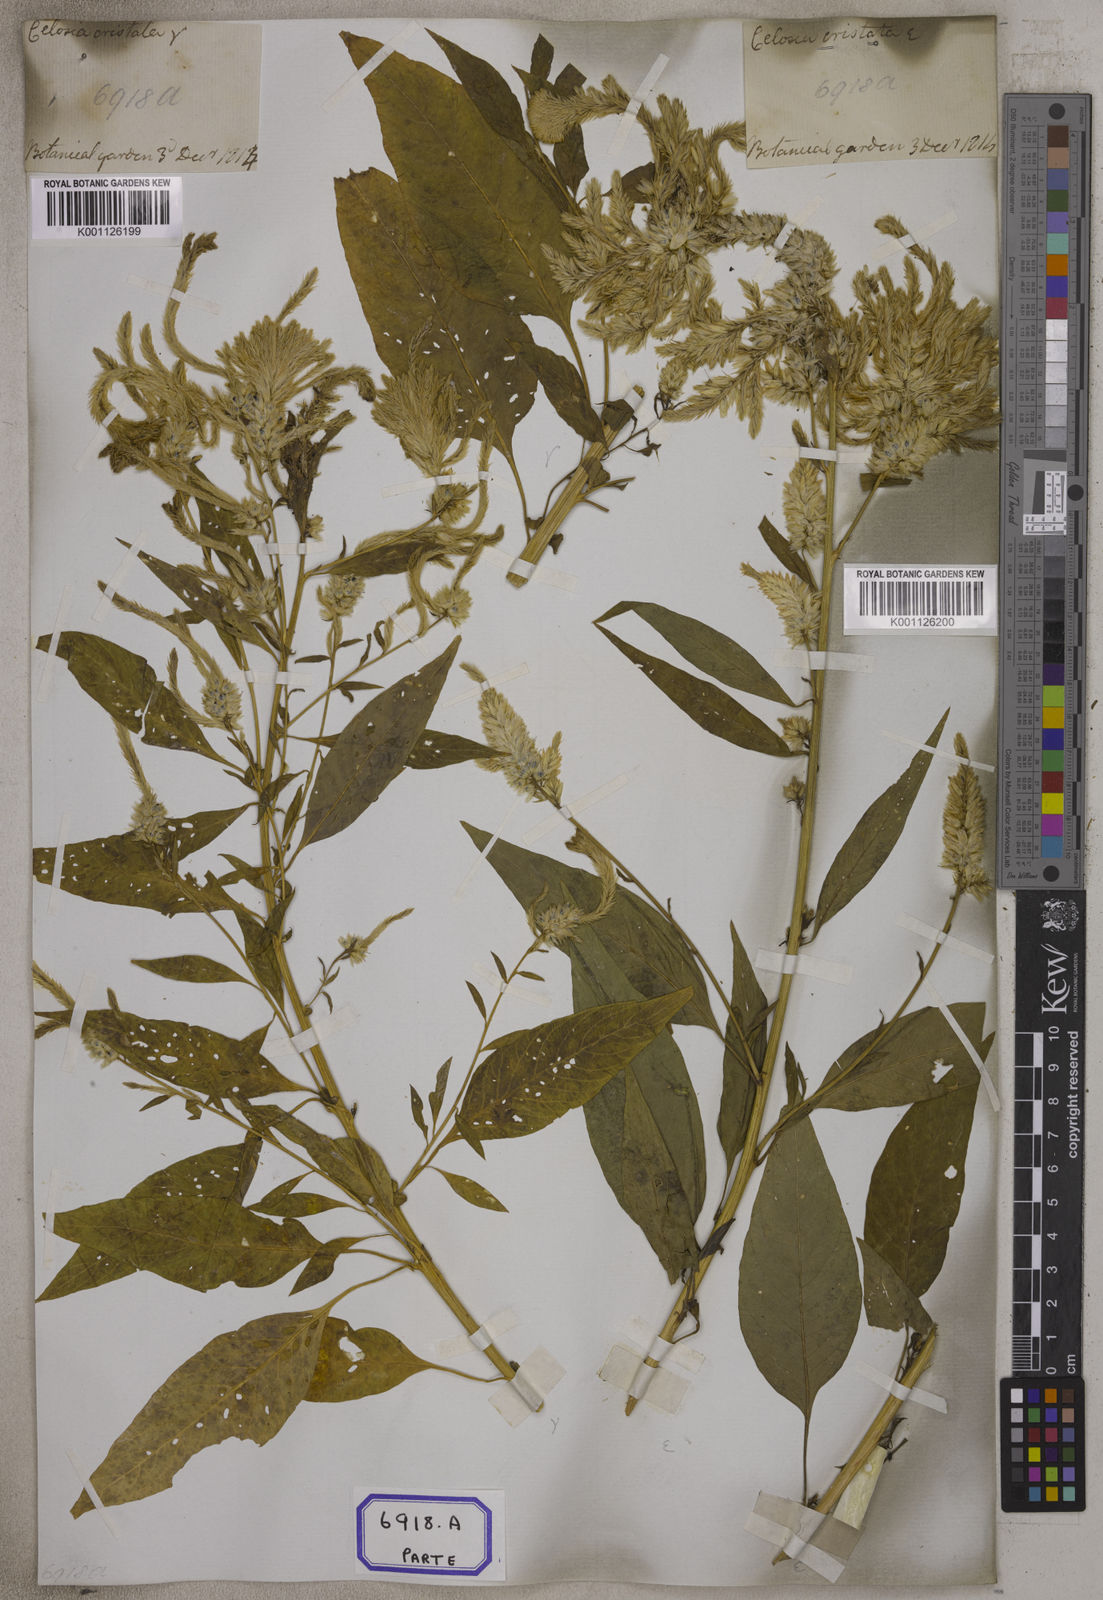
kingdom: Plantae
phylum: Tracheophyta
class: Magnoliopsida
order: Caryophyllales
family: Amaranthaceae
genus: Celosia
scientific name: Celosia argentea
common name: Feather cockscomb
